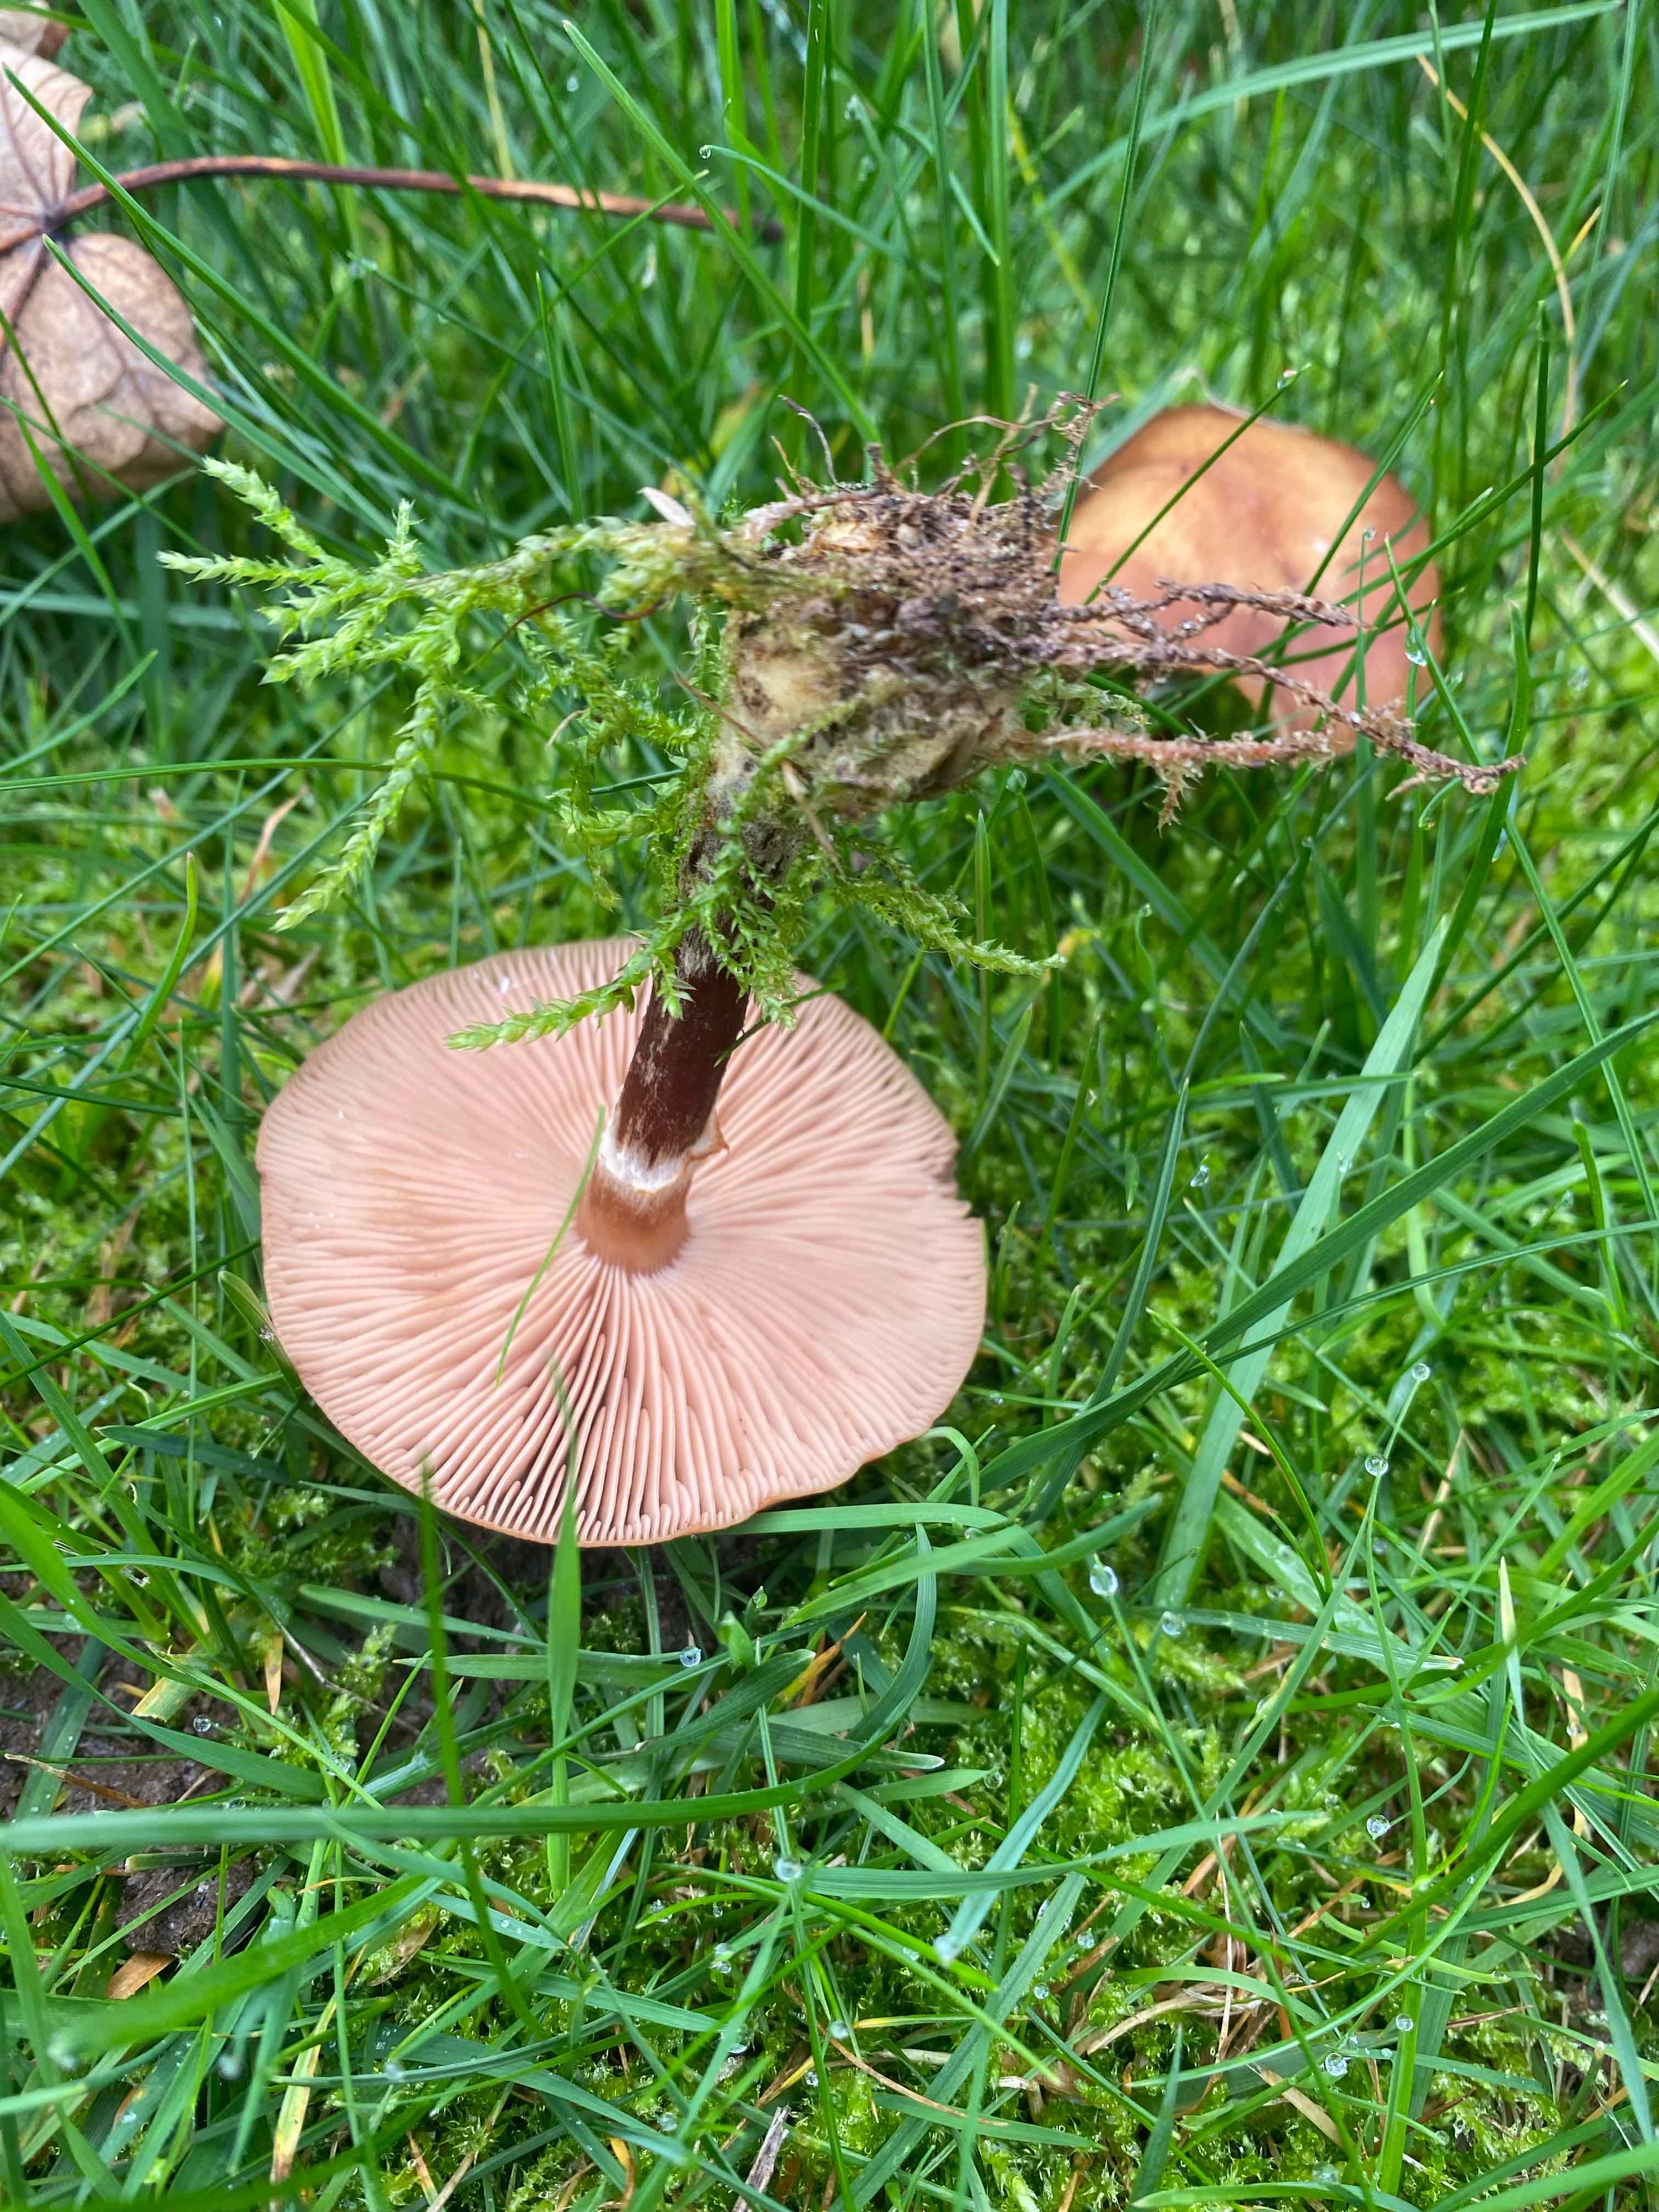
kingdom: Fungi
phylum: Basidiomycota
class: Agaricomycetes
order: Agaricales
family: Physalacriaceae
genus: Armillaria
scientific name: Armillaria
